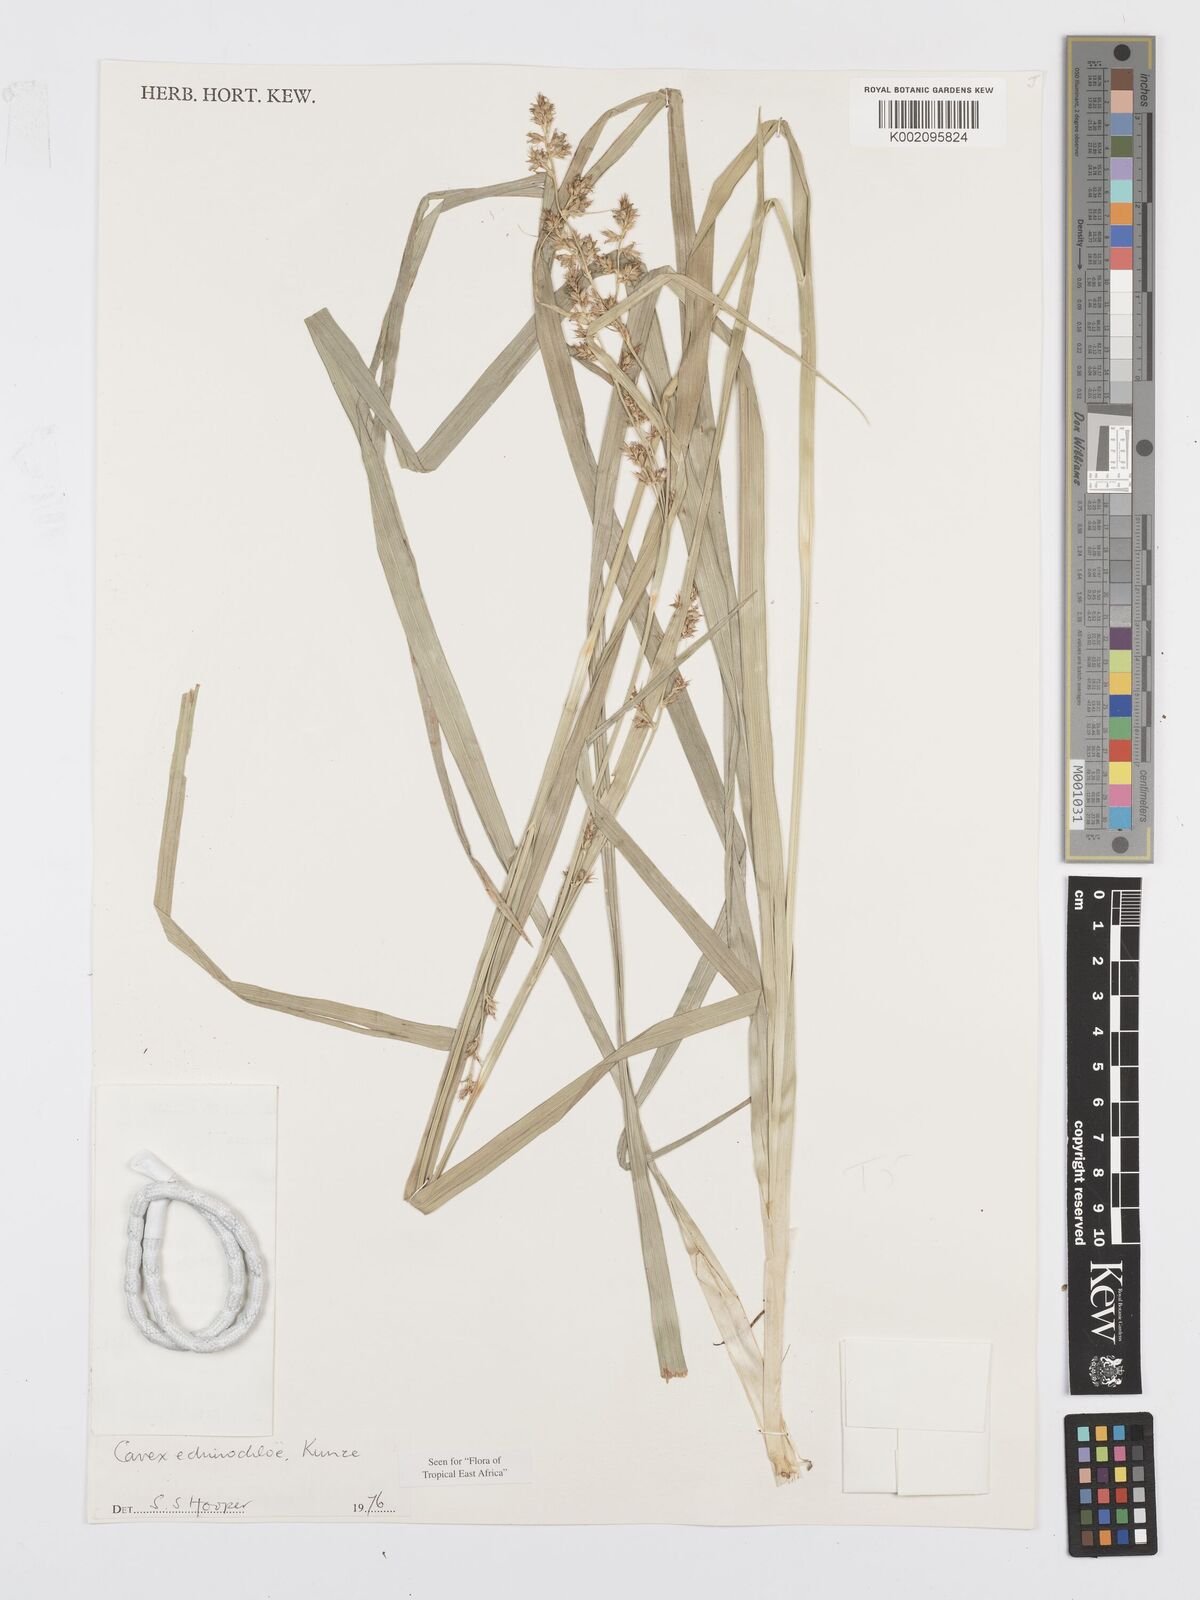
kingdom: Plantae
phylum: Tracheophyta
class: Liliopsida
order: Poales
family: Cyperaceae
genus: Carex
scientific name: Carex
